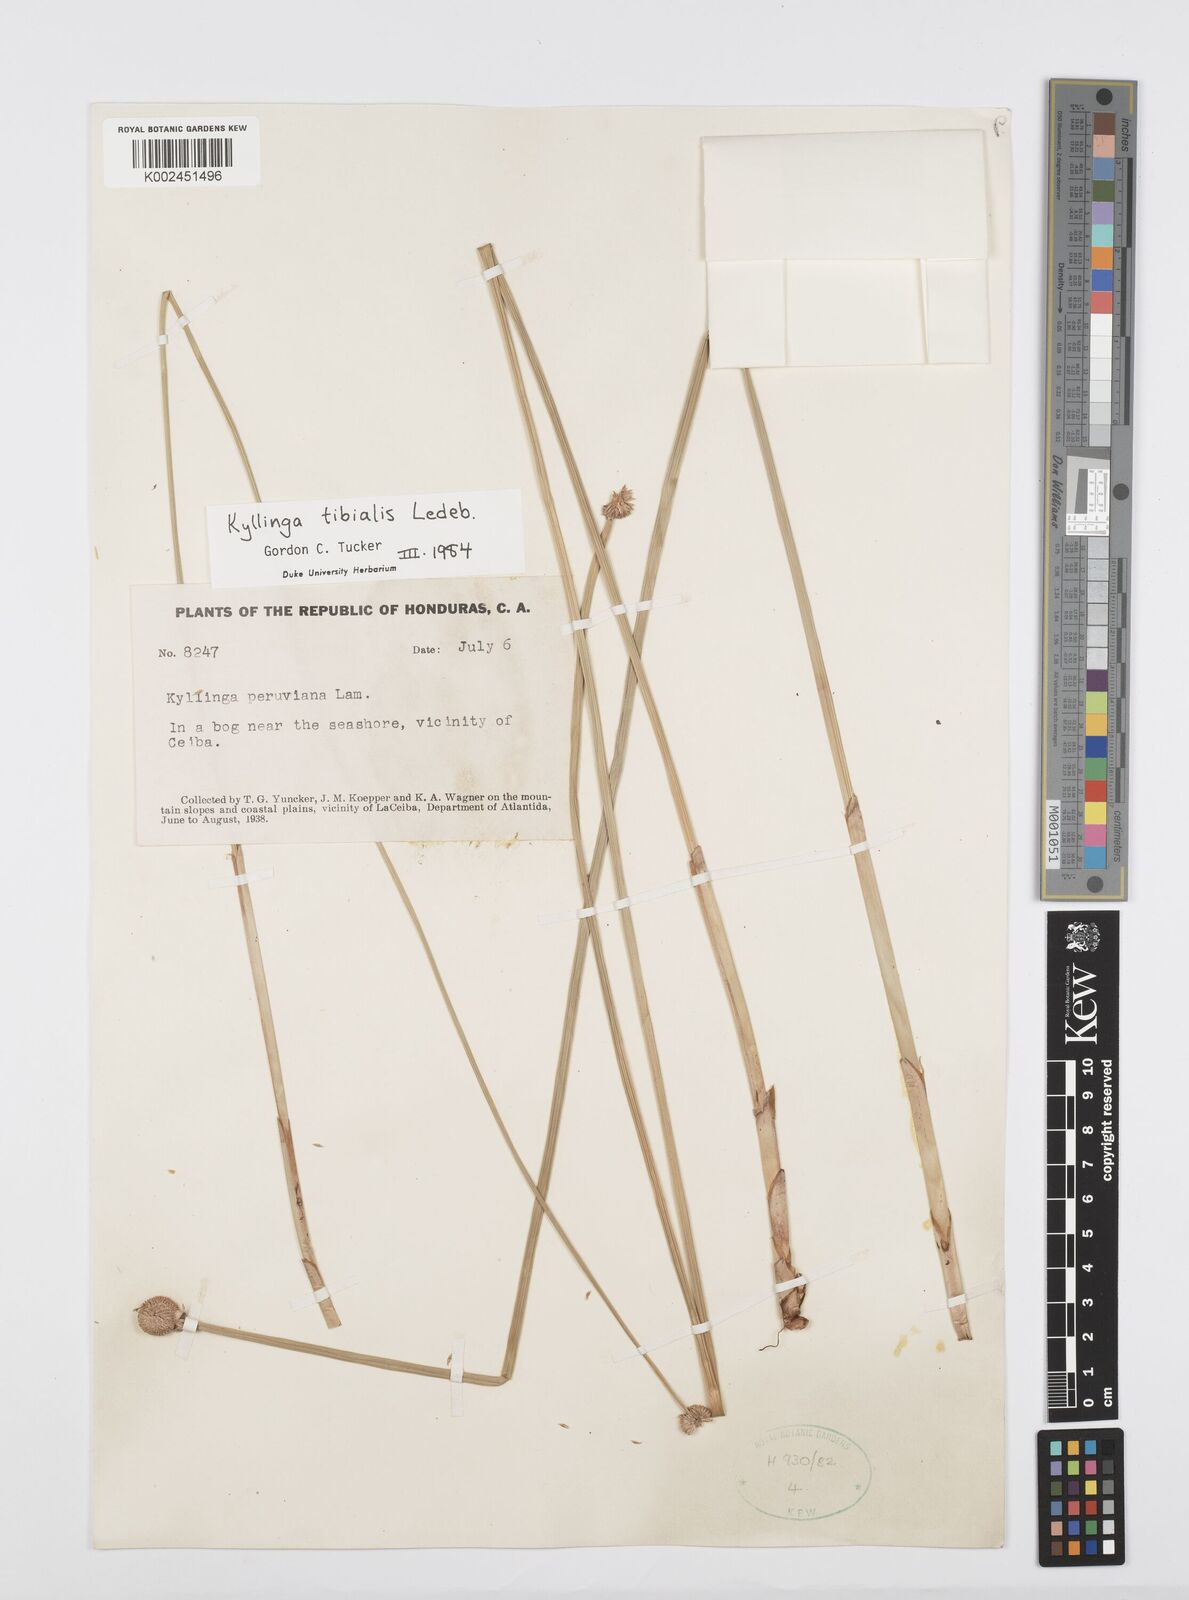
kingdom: Plantae
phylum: Tracheophyta
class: Liliopsida
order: Poales
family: Cyperaceae
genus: Cyperus
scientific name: Cyperus obtusatus
